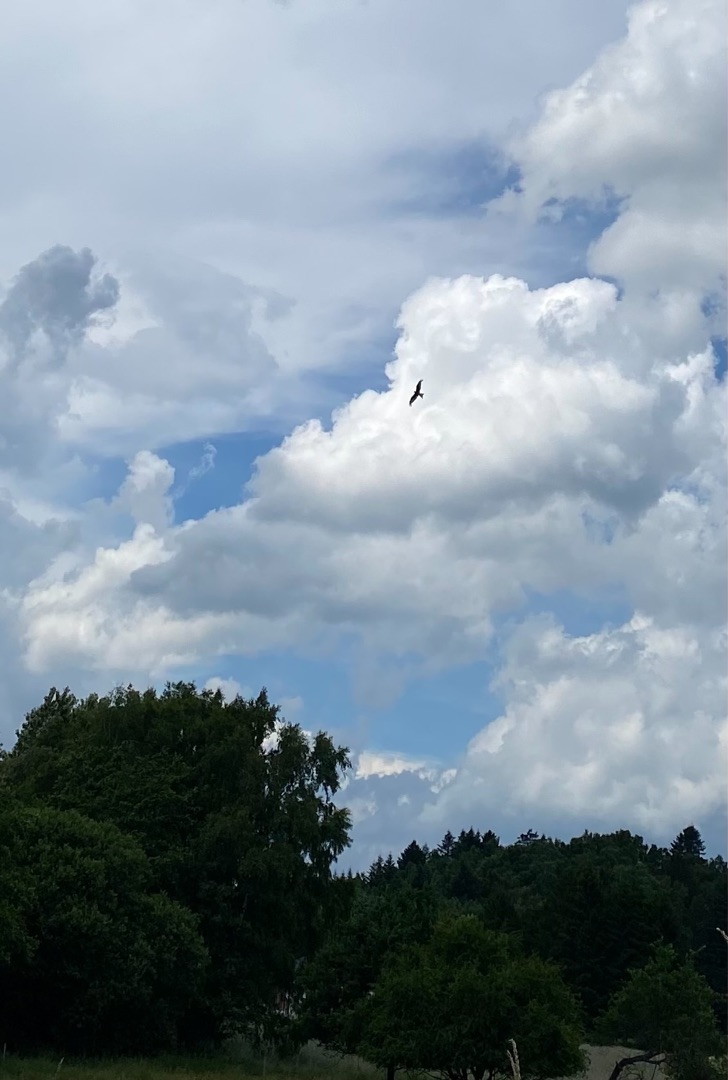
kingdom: Animalia
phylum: Chordata
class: Aves
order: Accipitriformes
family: Accipitridae
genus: Milvus
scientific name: Milvus milvus
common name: Rød glente
